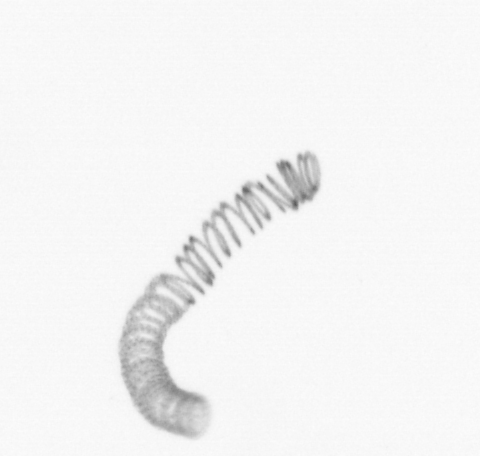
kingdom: Chromista
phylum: Ochrophyta
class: Bacillariophyceae
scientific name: Bacillariophyceae
